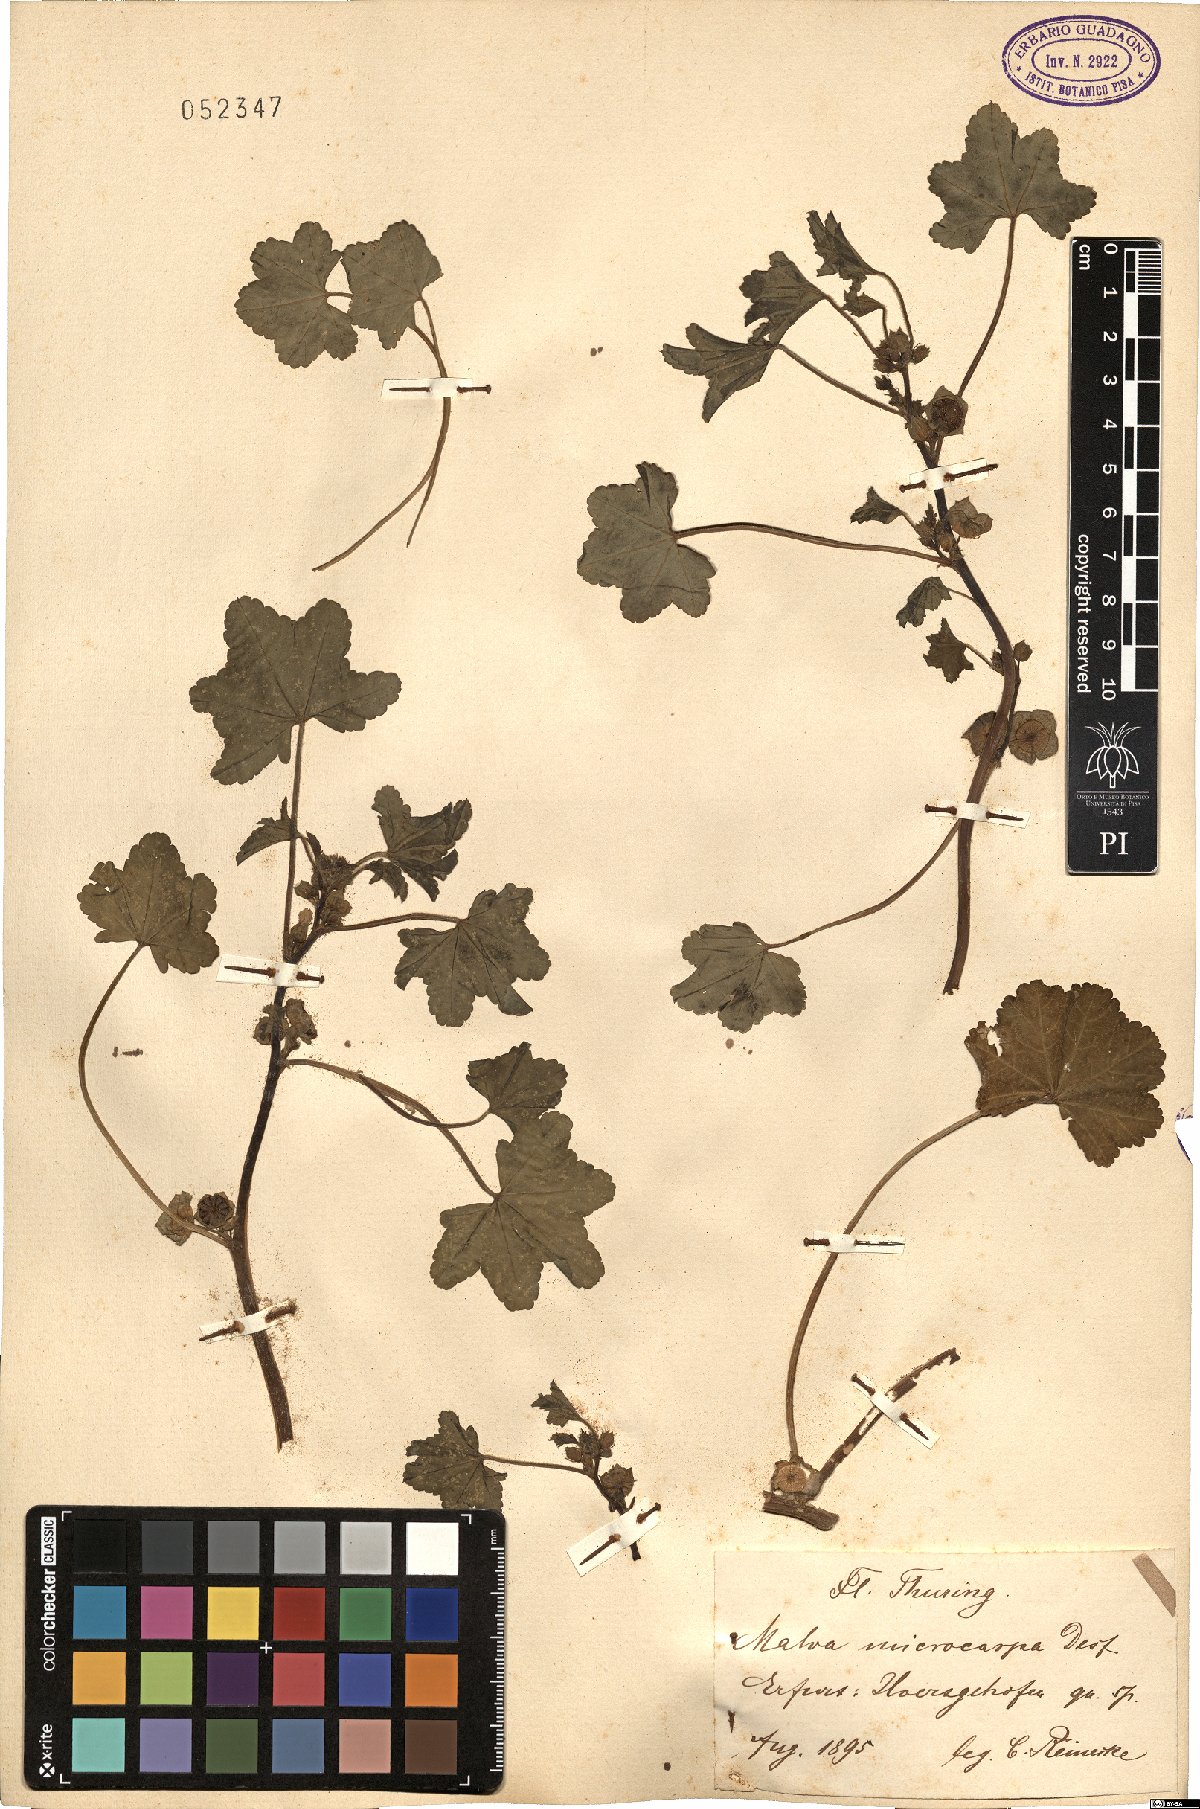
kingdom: Plantae
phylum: Tracheophyta
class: Magnoliopsida
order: Malvales
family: Malvaceae
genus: Malva
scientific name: Malva parviflora
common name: Least mallow
